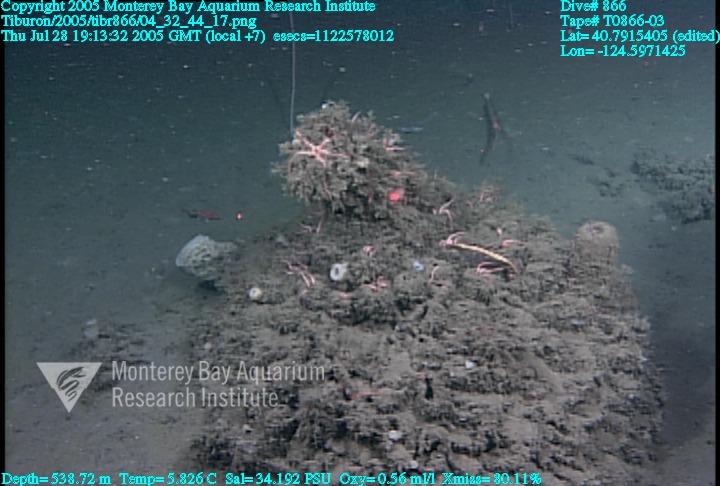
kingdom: Animalia
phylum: Porifera
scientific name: Porifera
